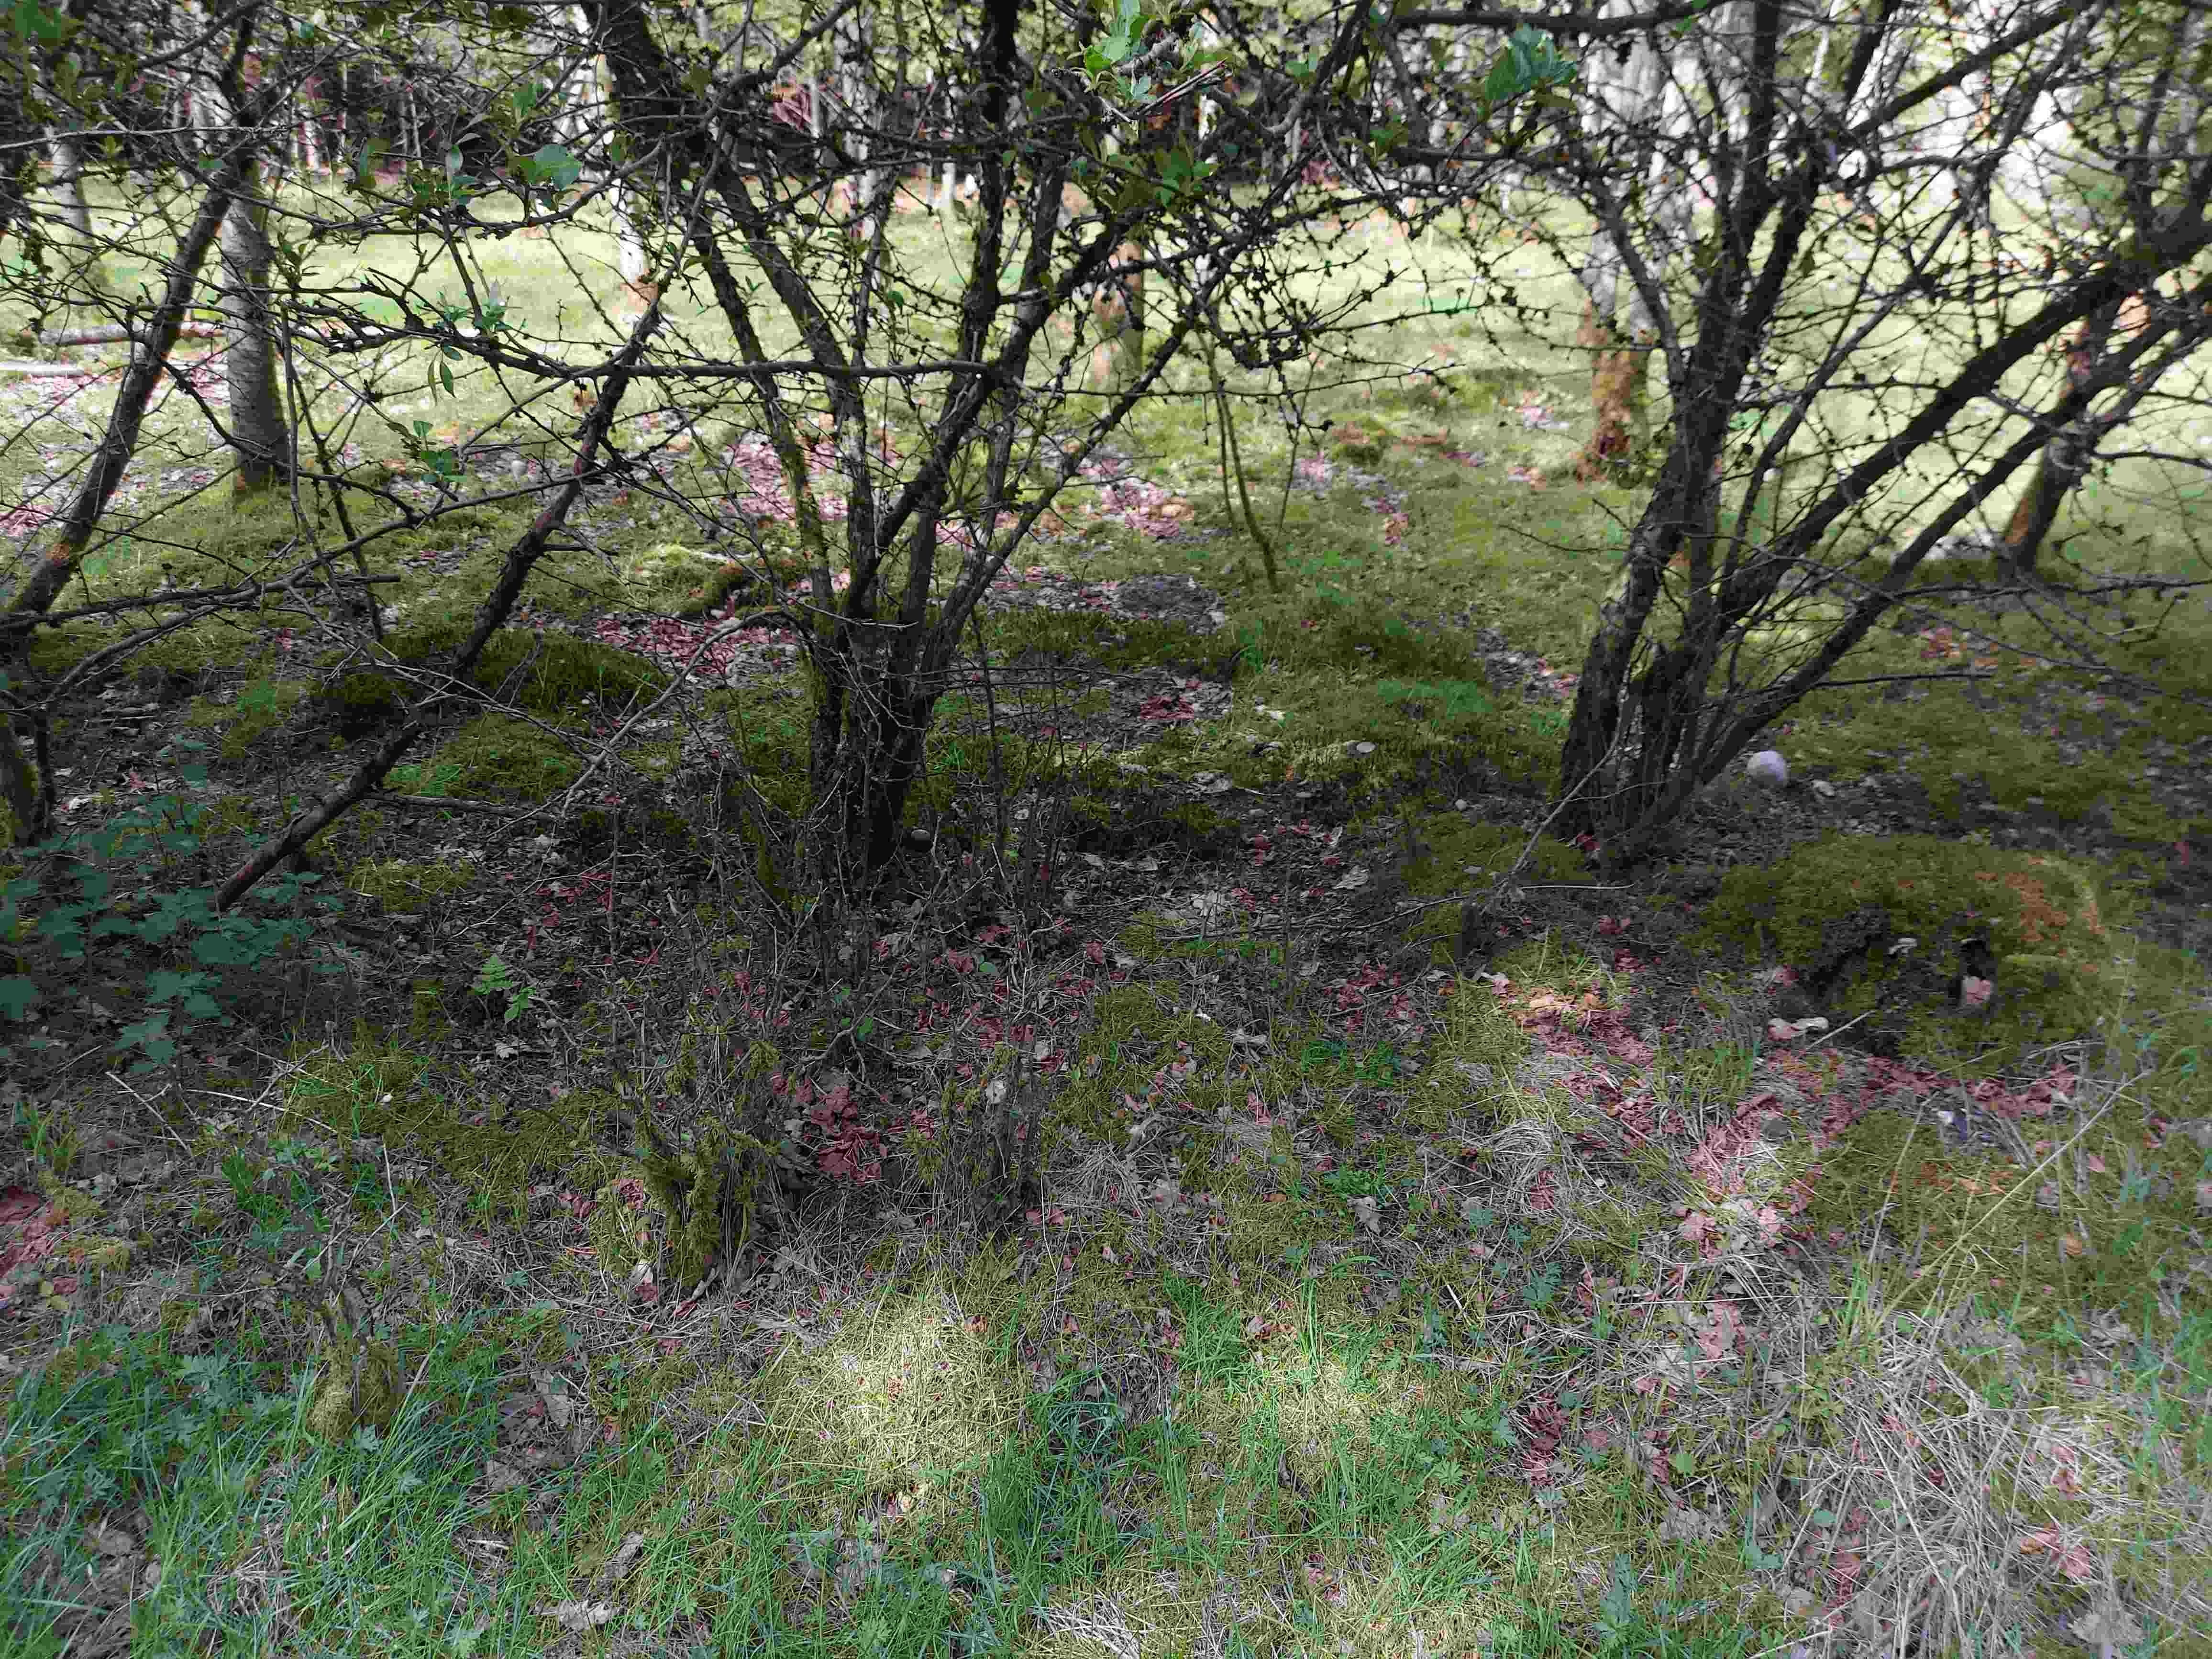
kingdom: Fungi
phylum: Basidiomycota
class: Agaricomycetes
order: Agaricales
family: Entolomataceae
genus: Entoloma
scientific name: Entoloma clypeatum
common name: flammet rødblad
